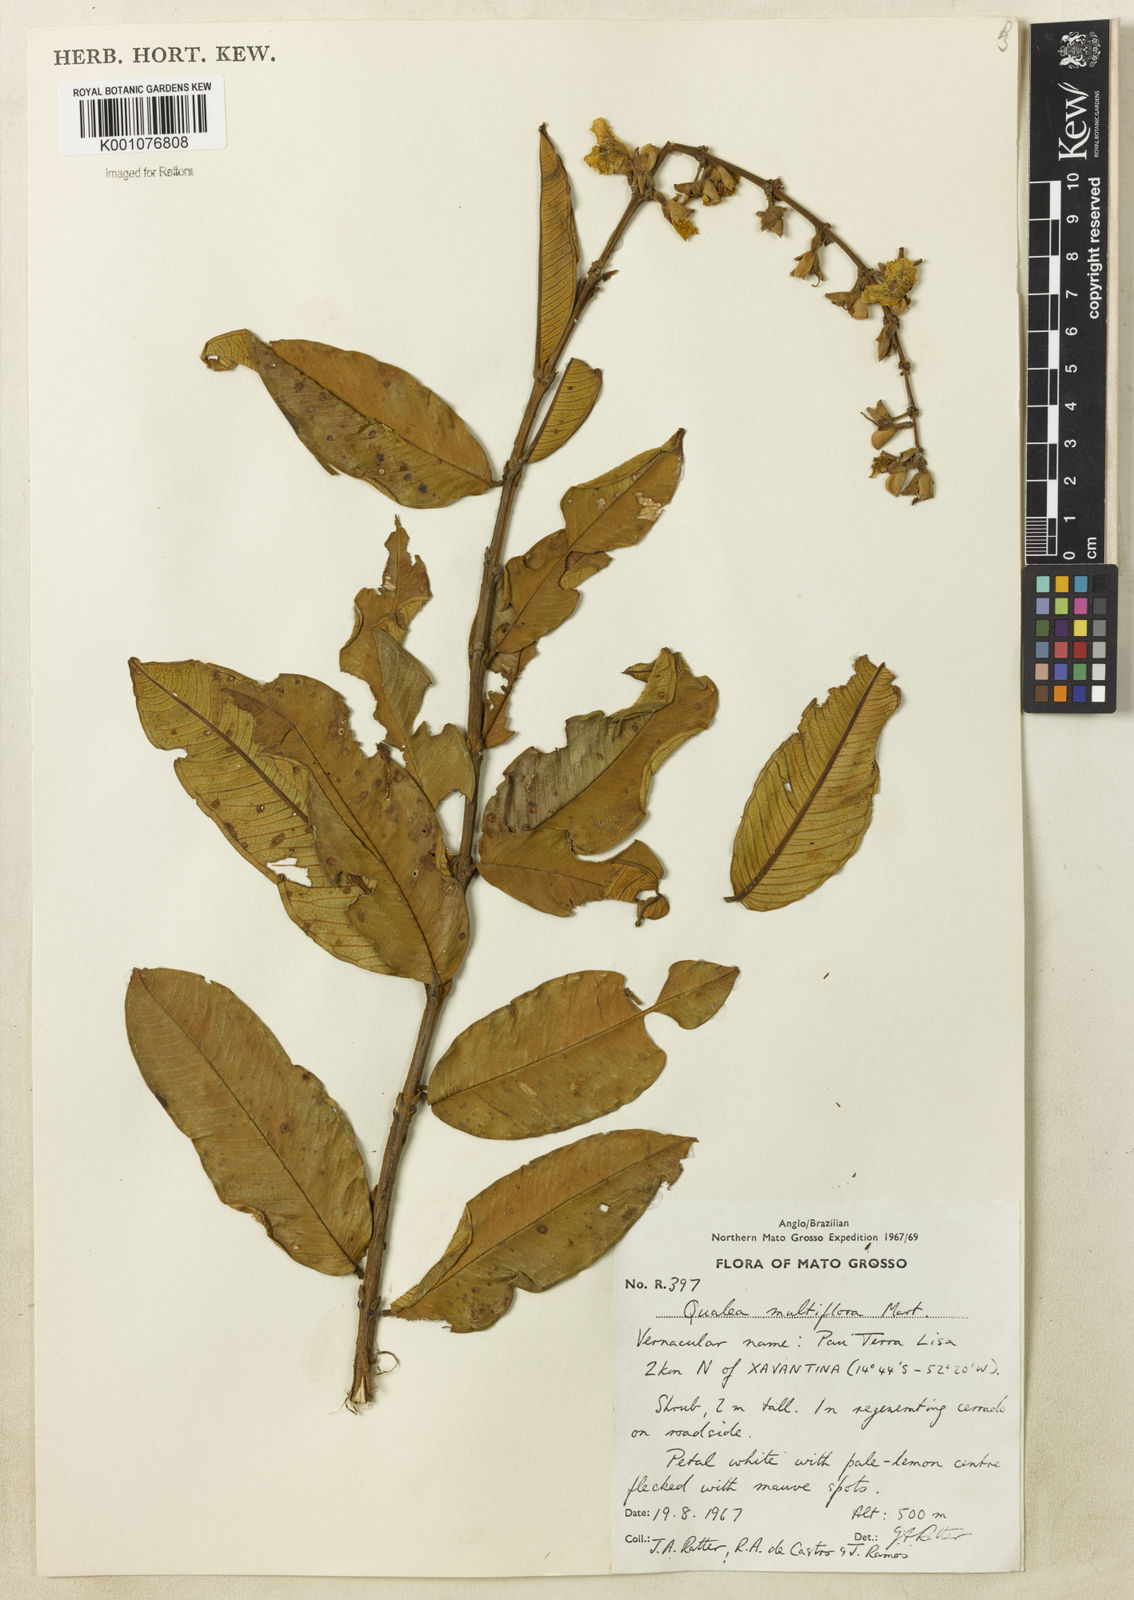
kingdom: Plantae
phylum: Tracheophyta
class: Magnoliopsida
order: Myrtales
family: Vochysiaceae
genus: Qualea
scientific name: Qualea multiflora
